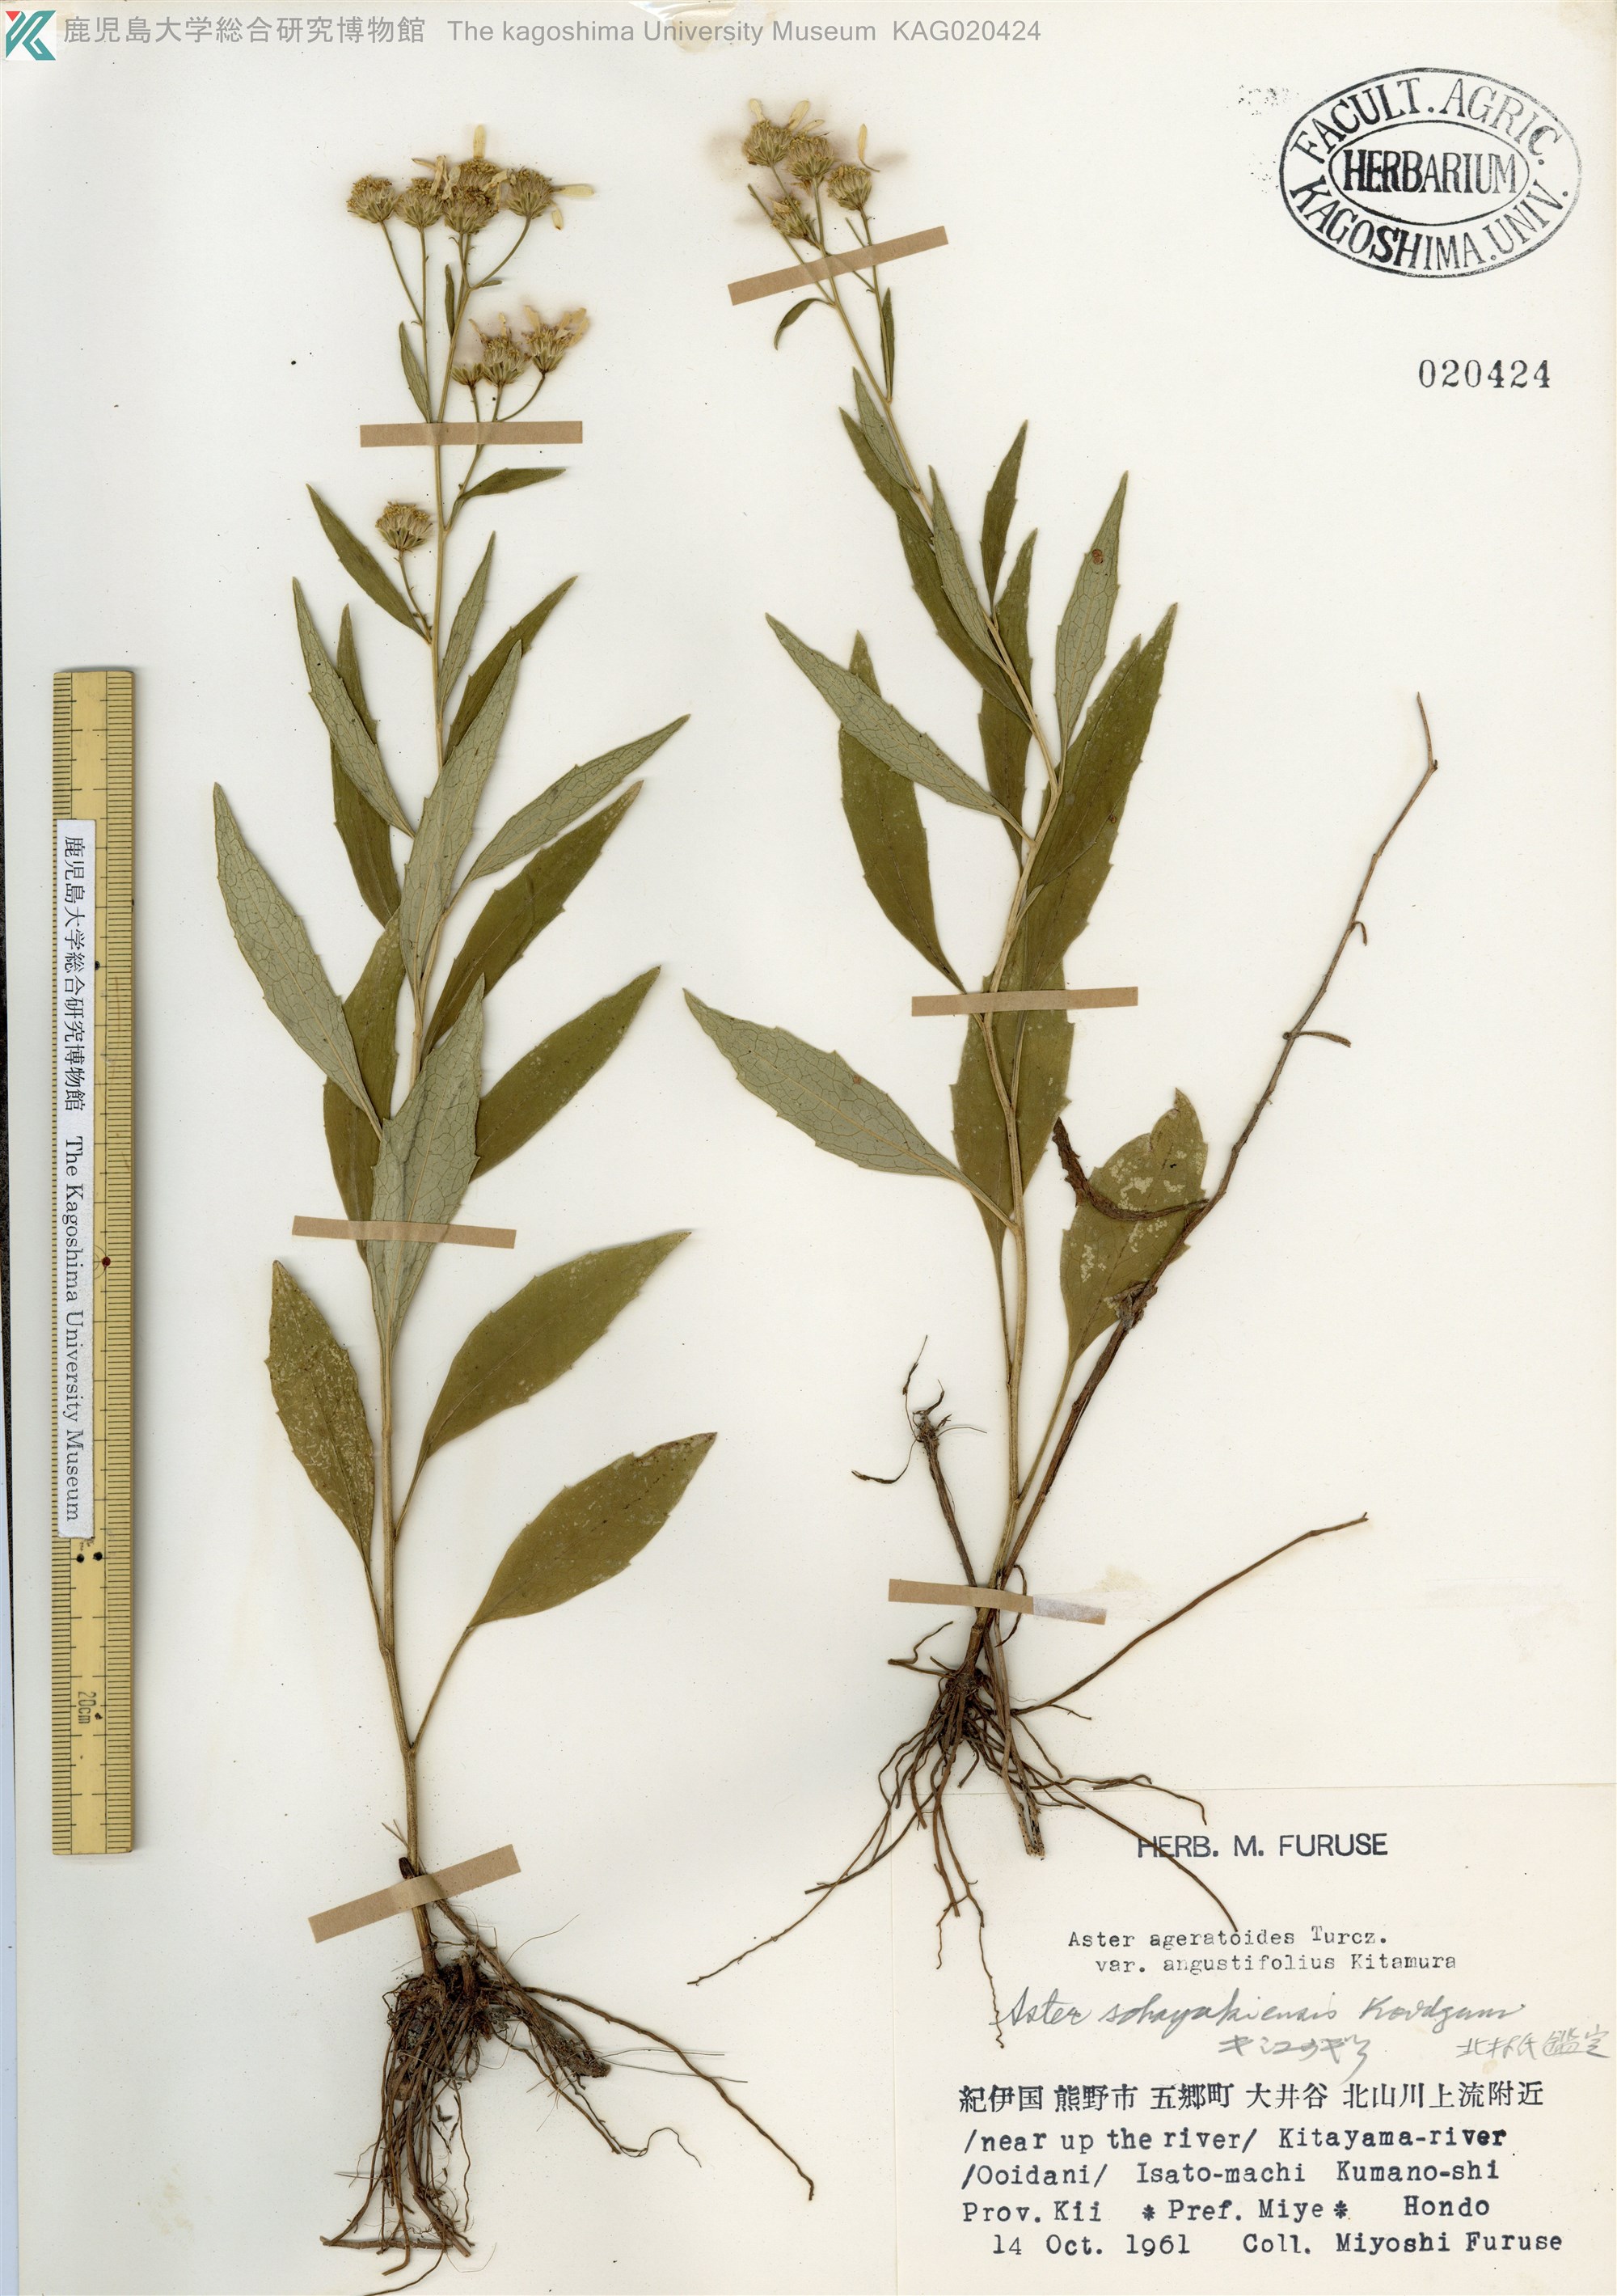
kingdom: Plantae
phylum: Tracheophyta
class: Magnoliopsida
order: Asterales
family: Asteraceae
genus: Cardiagyris
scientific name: Cardiagyris sohayakiensis
